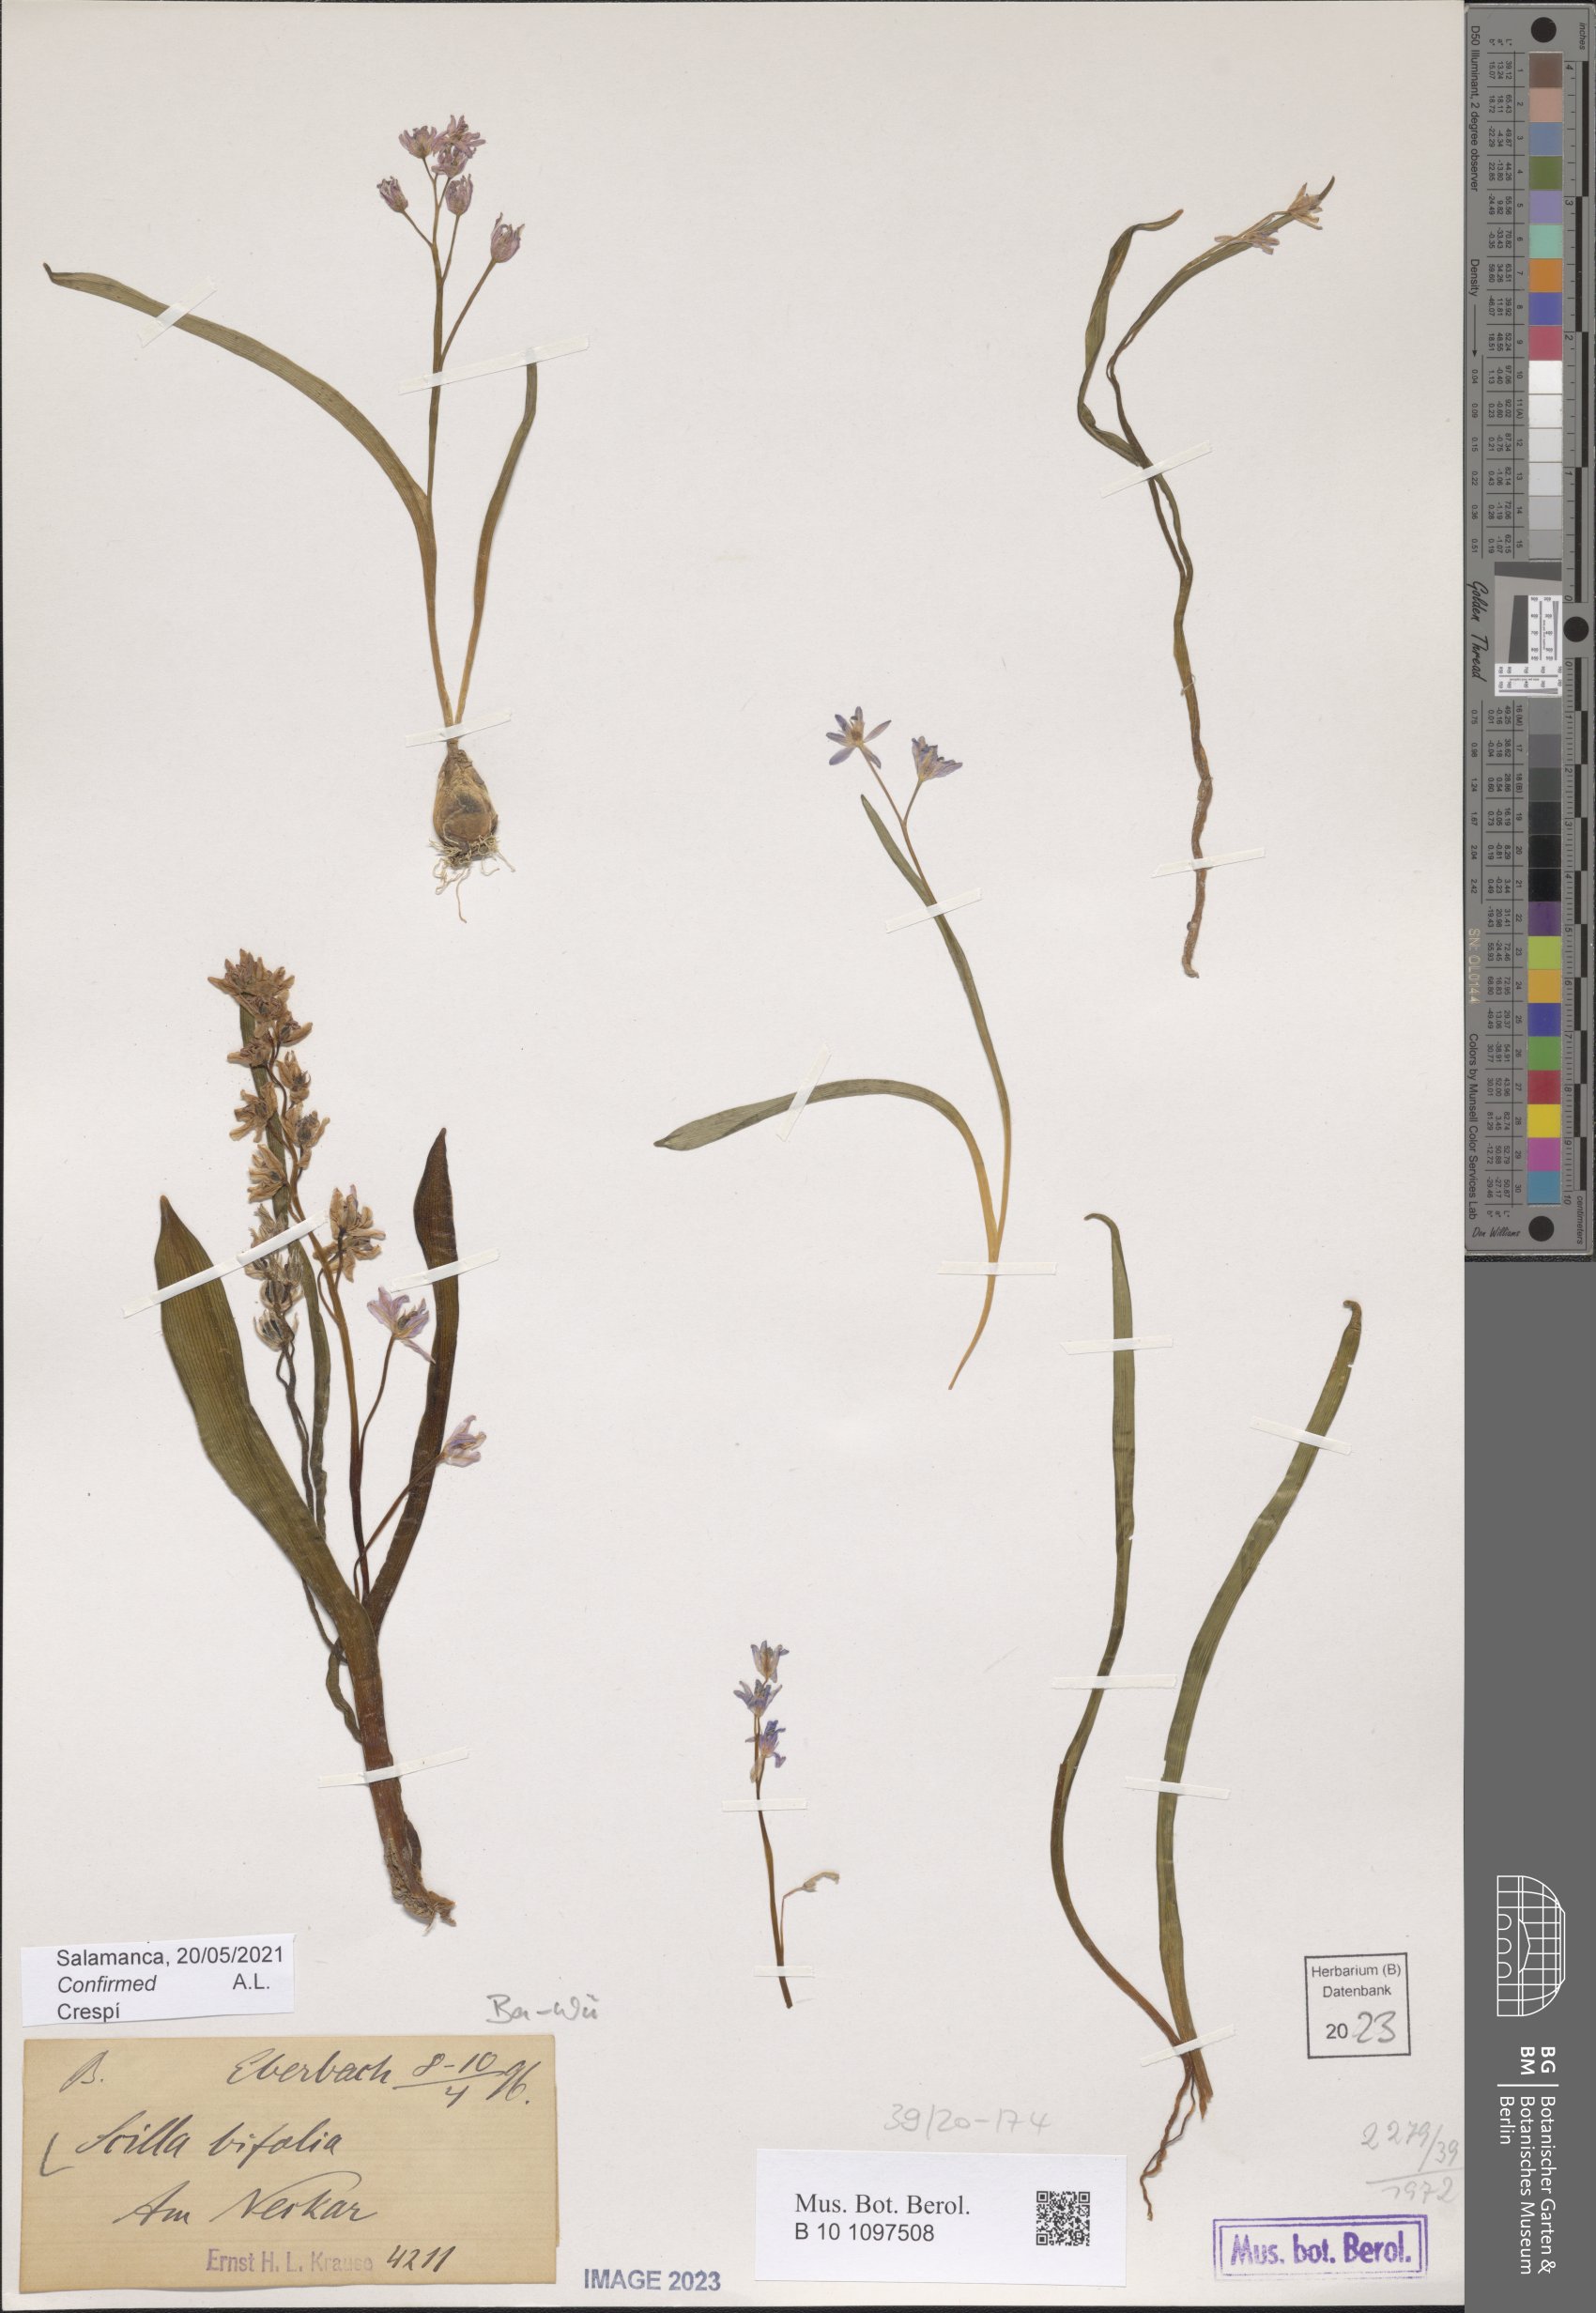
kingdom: Plantae
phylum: Tracheophyta
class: Liliopsida
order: Asparagales
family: Asparagaceae
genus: Scilla
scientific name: Scilla bifolia
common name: Alpine squill
